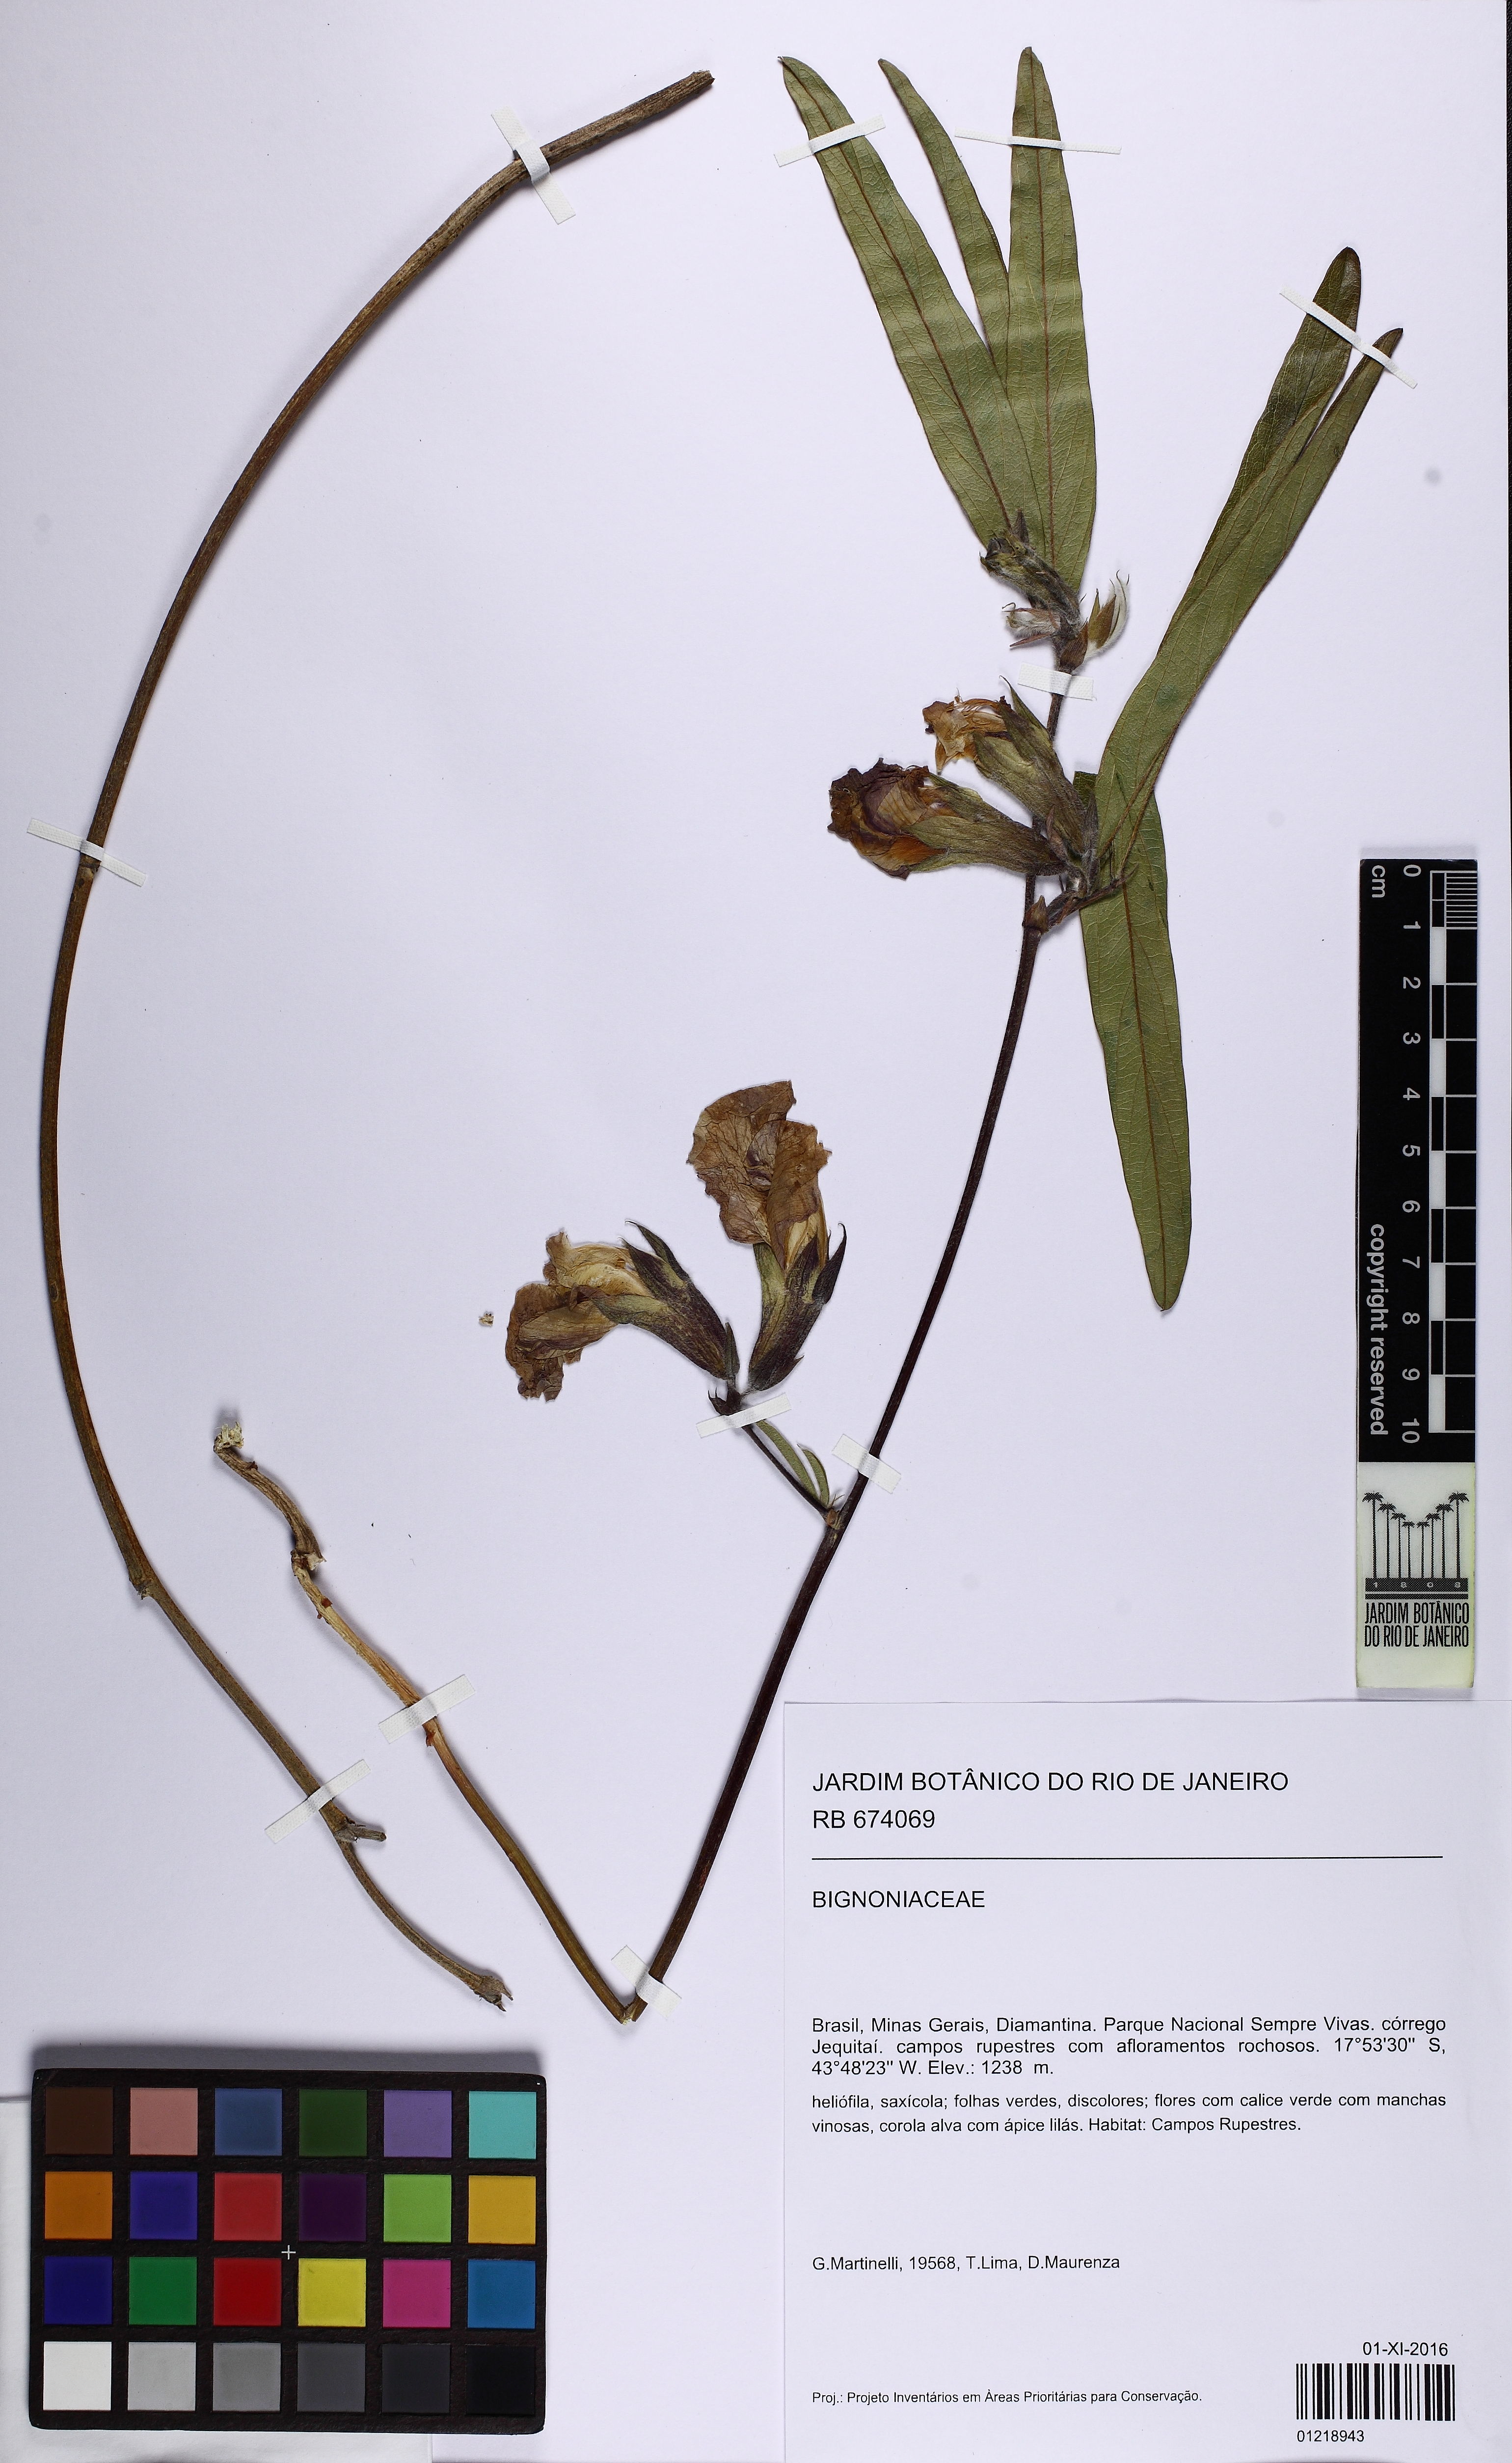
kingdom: Plantae
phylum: Tracheophyta
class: Magnoliopsida
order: Fabales
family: Fabaceae
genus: Clitoria
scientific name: Clitoria guianensis
